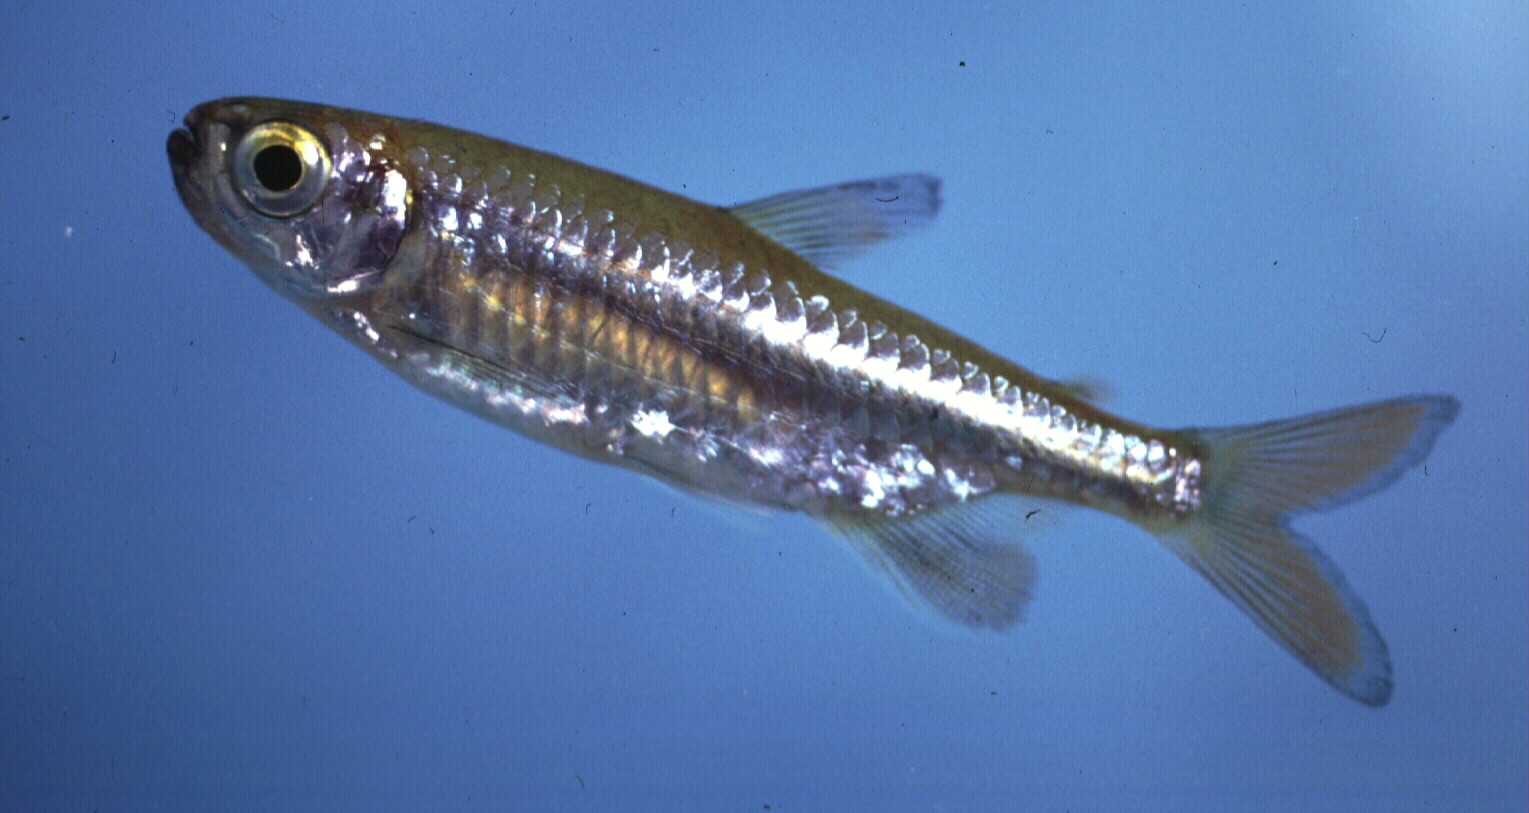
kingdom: Animalia
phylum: Chordata
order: Characiformes
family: Alestidae
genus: Micralestes
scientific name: Micralestes acutidens
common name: Silver robber
